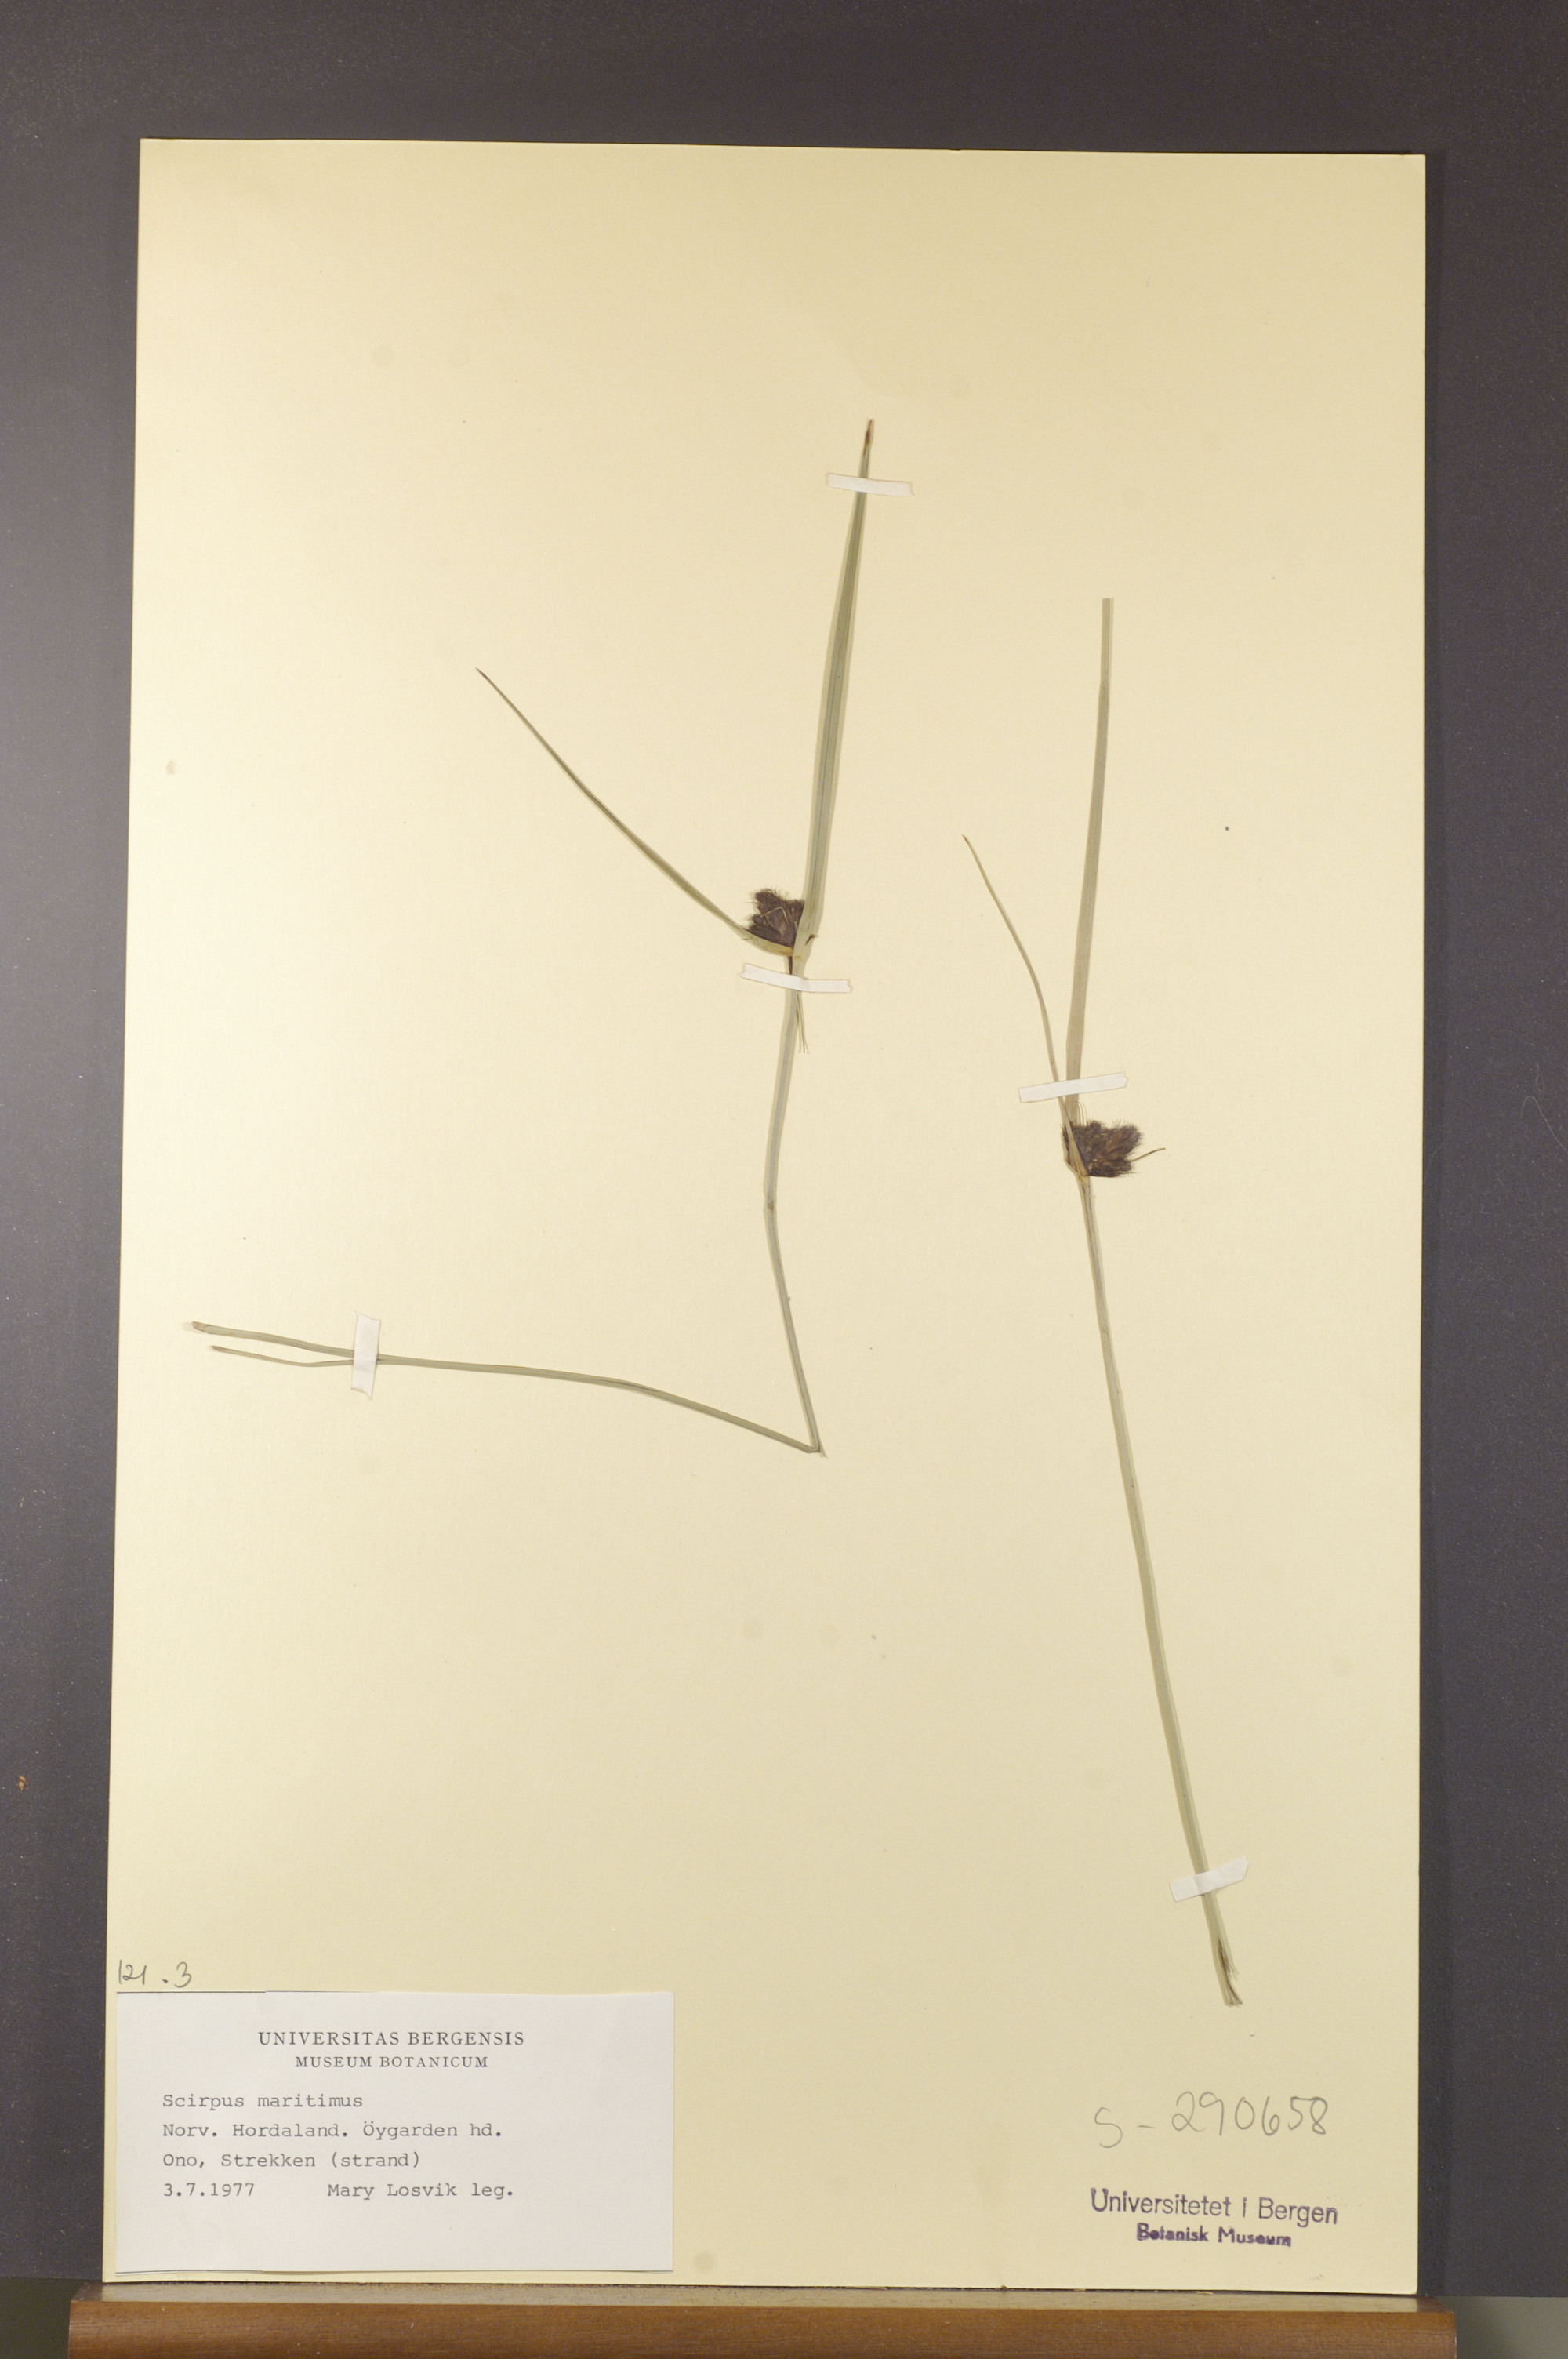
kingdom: Plantae
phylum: Tracheophyta
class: Liliopsida
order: Poales
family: Cyperaceae
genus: Bolboschoenus
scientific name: Bolboschoenus maritimus
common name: Sea club-rush
